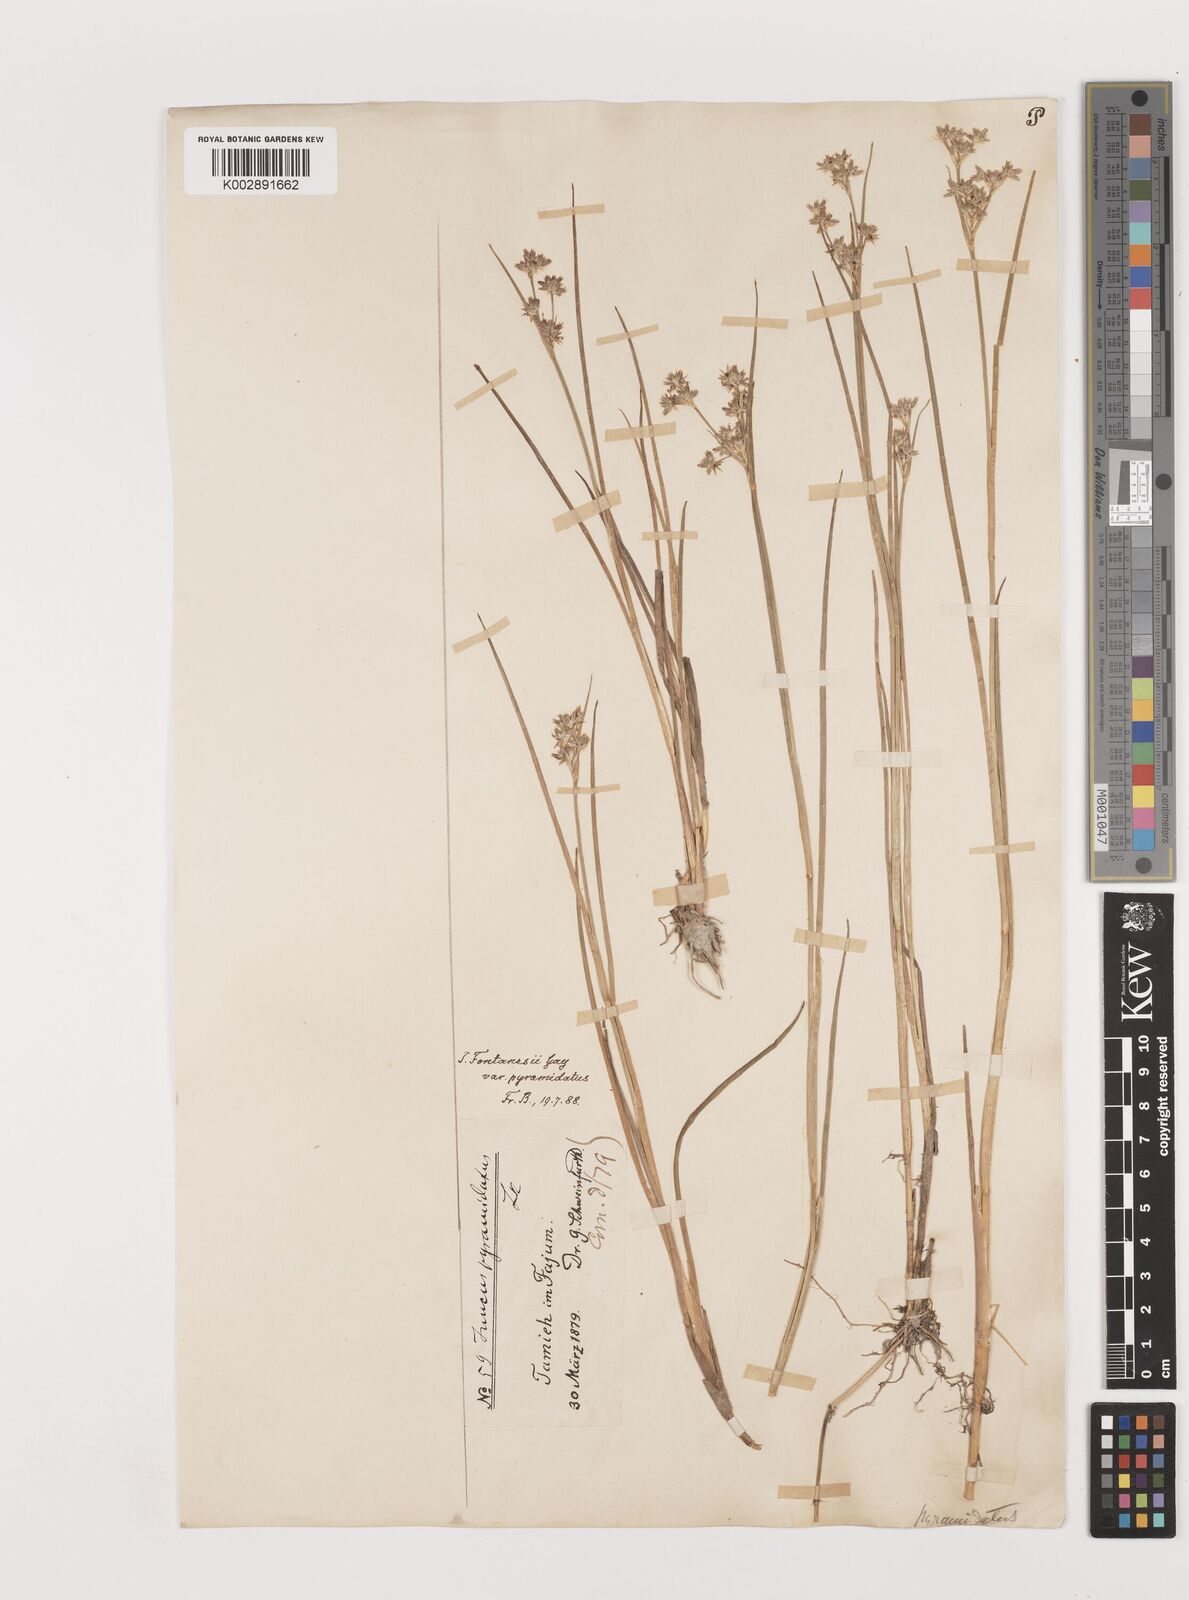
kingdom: Plantae
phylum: Tracheophyta
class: Liliopsida
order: Poales
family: Juncaceae
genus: Juncus
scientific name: Juncus fontanesii
